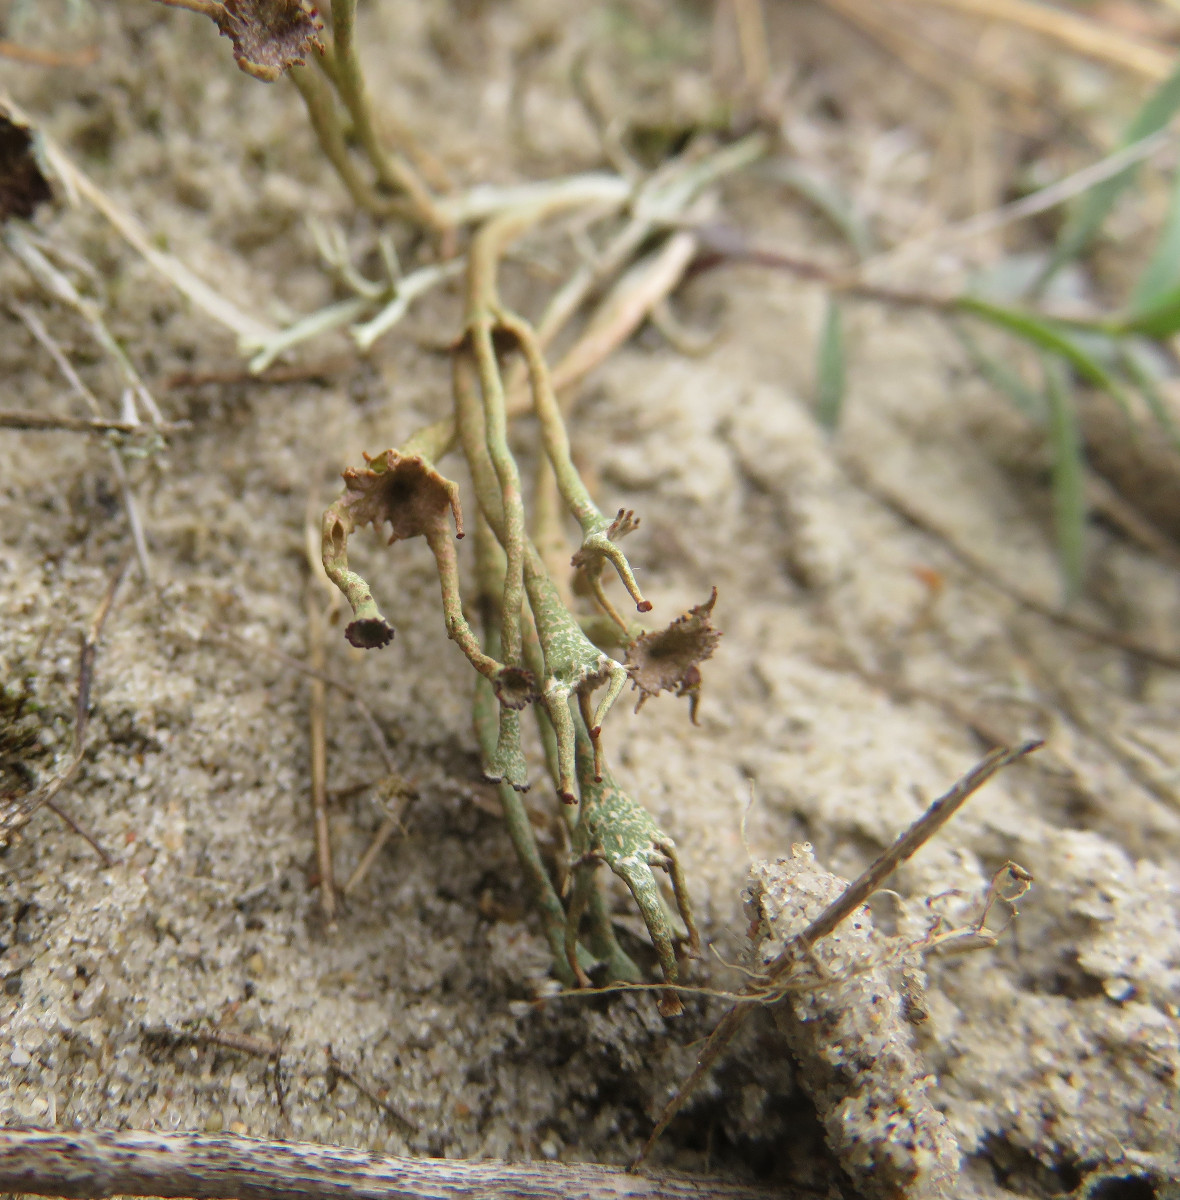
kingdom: Fungi
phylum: Ascomycota
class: Lecanoromycetes
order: Lecanorales
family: Cladoniaceae
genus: Cladonia
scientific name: Cladonia gracilis
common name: slank bægerlav
